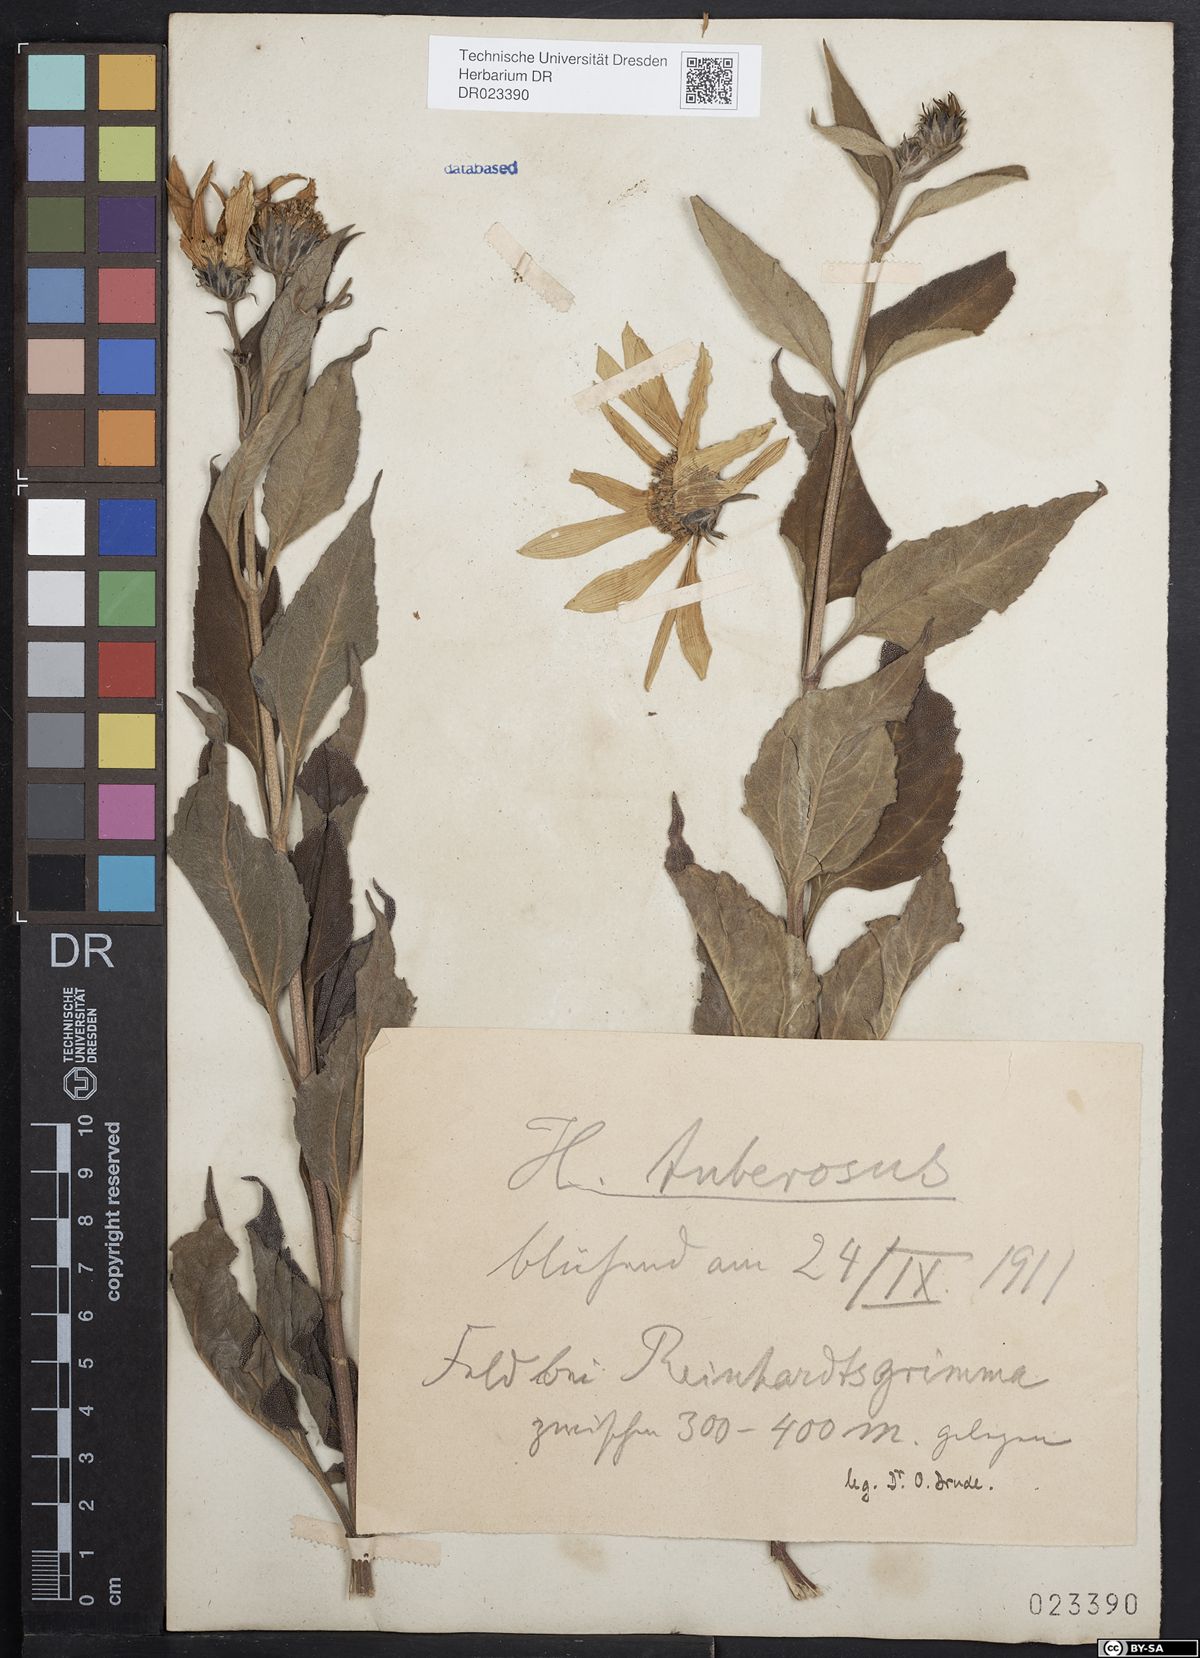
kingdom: Plantae
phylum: Tracheophyta
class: Magnoliopsida
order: Asterales
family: Asteraceae
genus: Helianthus
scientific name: Helianthus tuberosus
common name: Jerusalem artichoke
